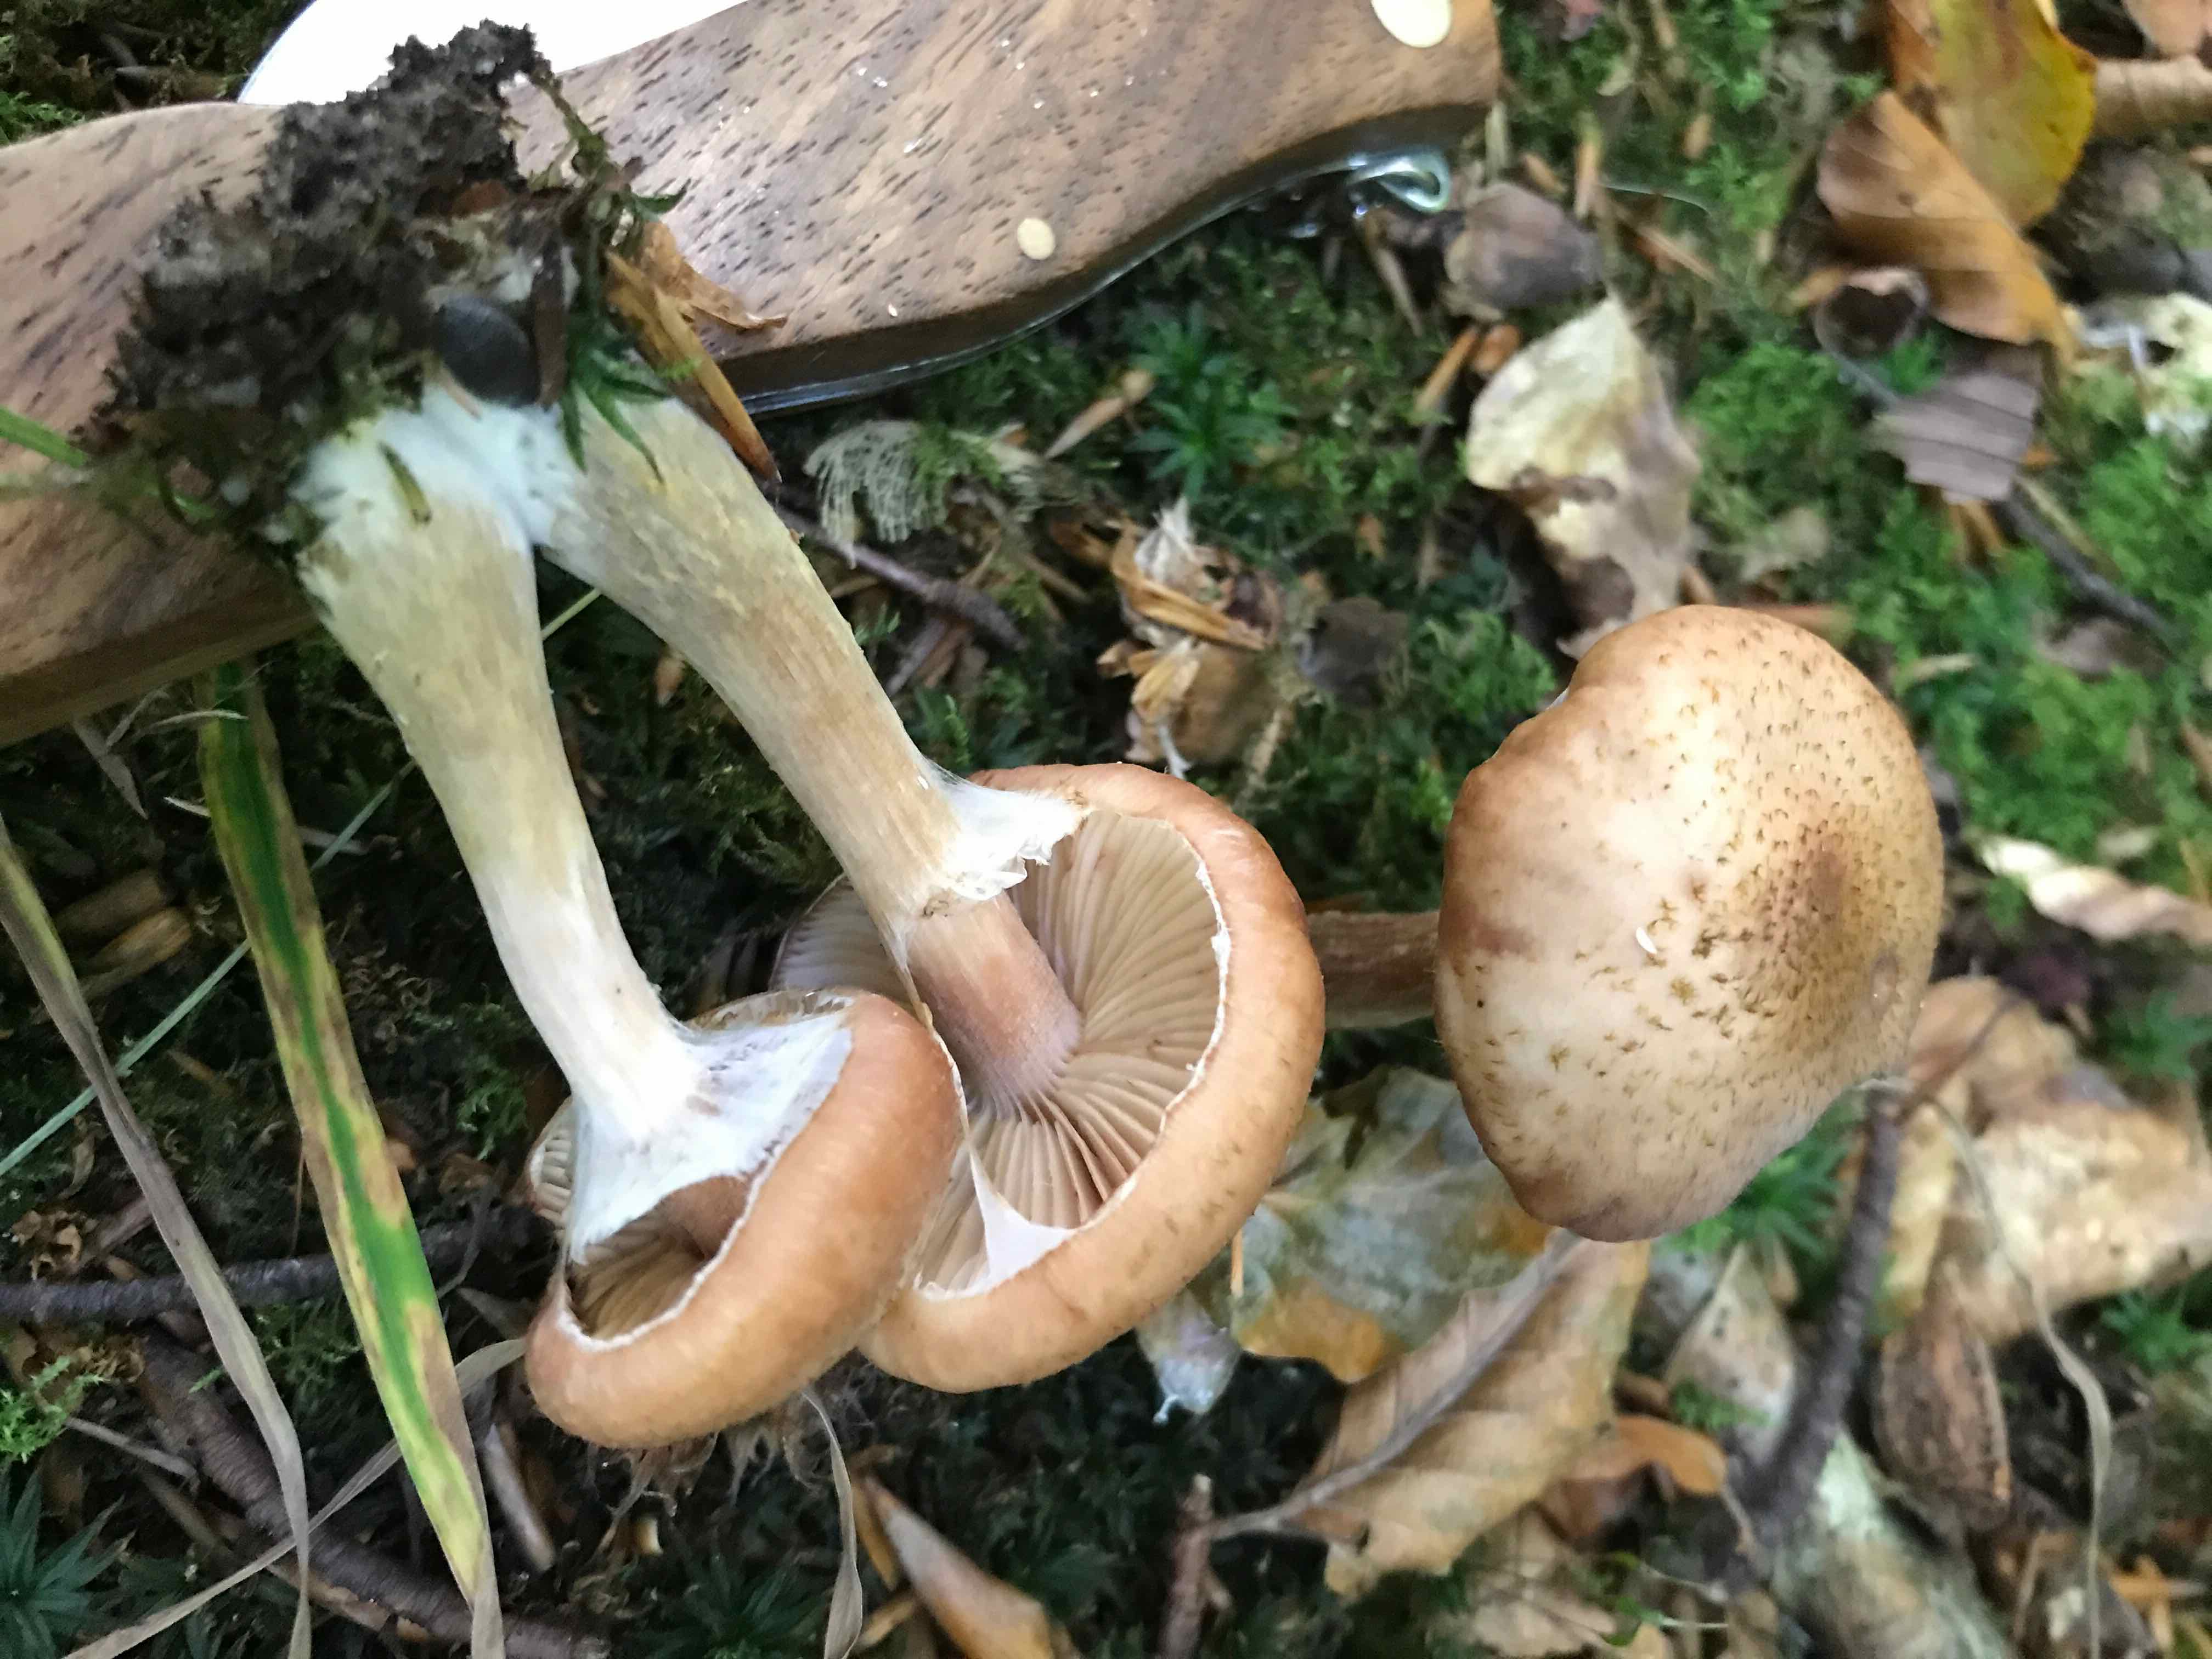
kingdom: Fungi
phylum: Basidiomycota
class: Agaricomycetes
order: Agaricales
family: Physalacriaceae
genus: Armillaria
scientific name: Armillaria lutea
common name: køllestokket honningsvamp
